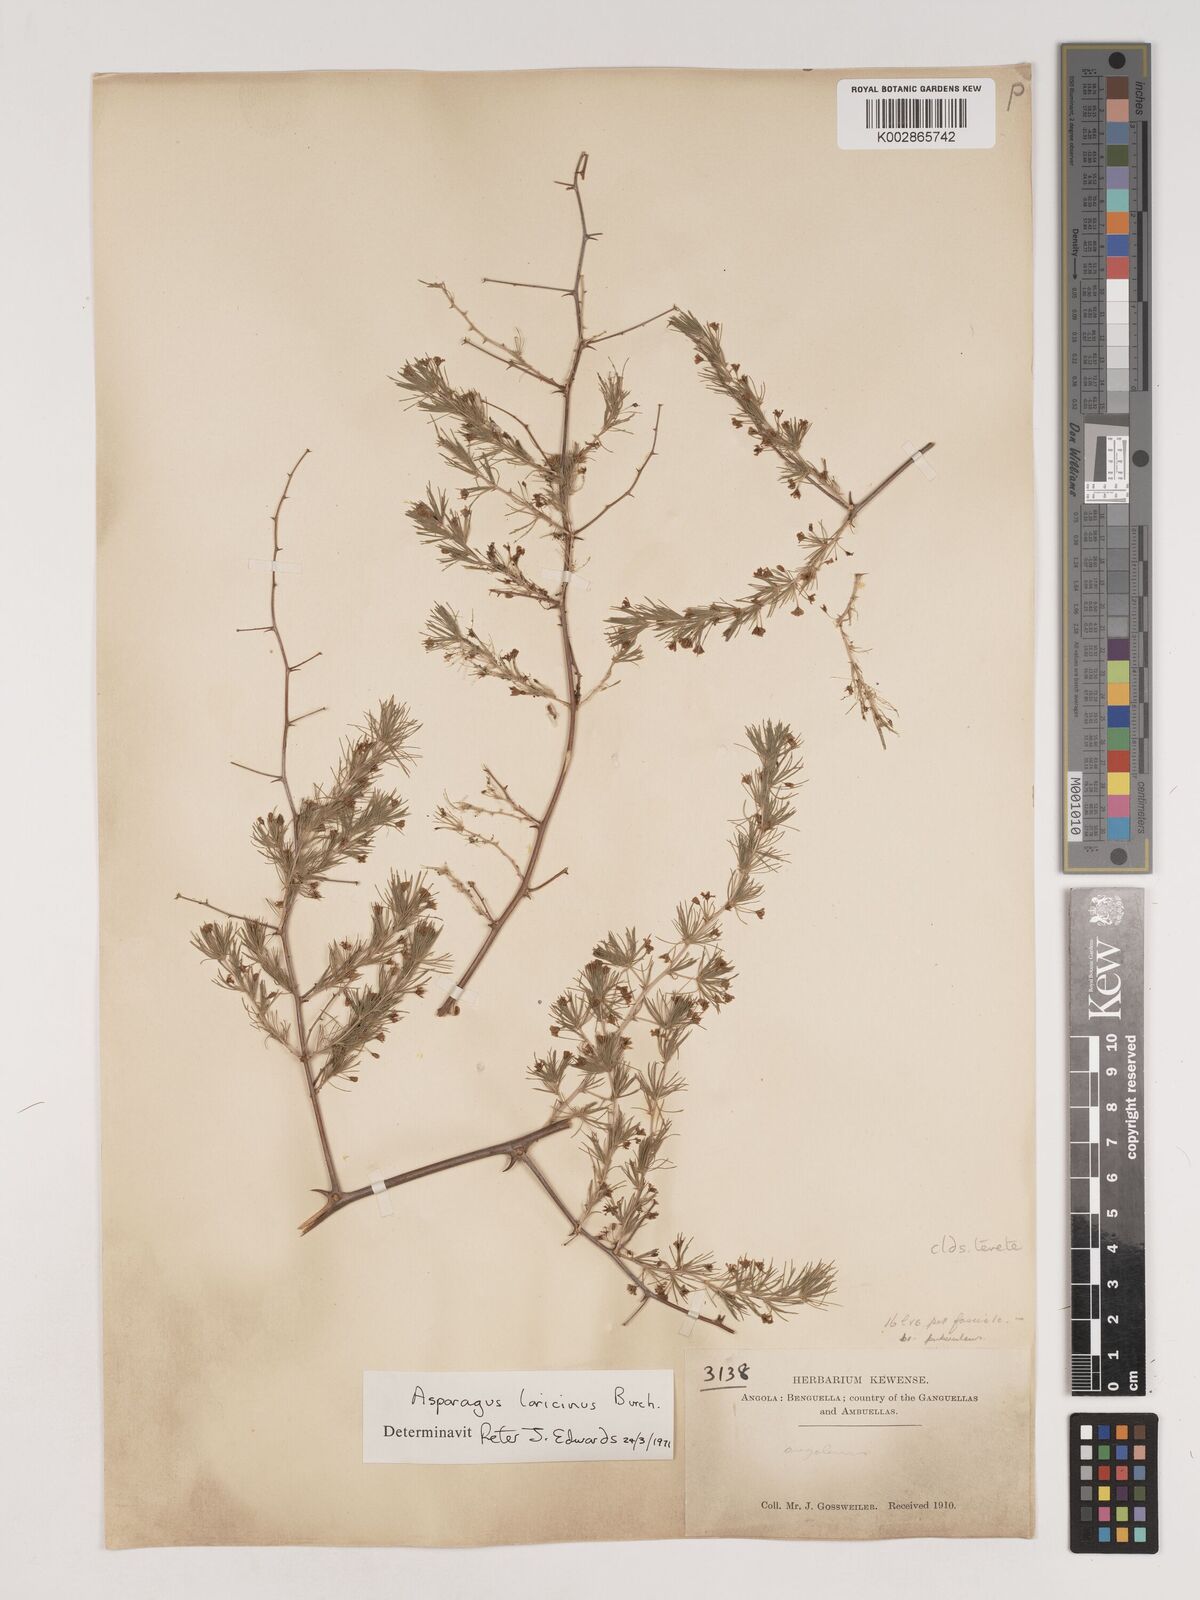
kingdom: Plantae
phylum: Tracheophyta
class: Liliopsida
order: Asparagales
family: Asparagaceae
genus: Asparagus
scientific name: Asparagus laricinus
